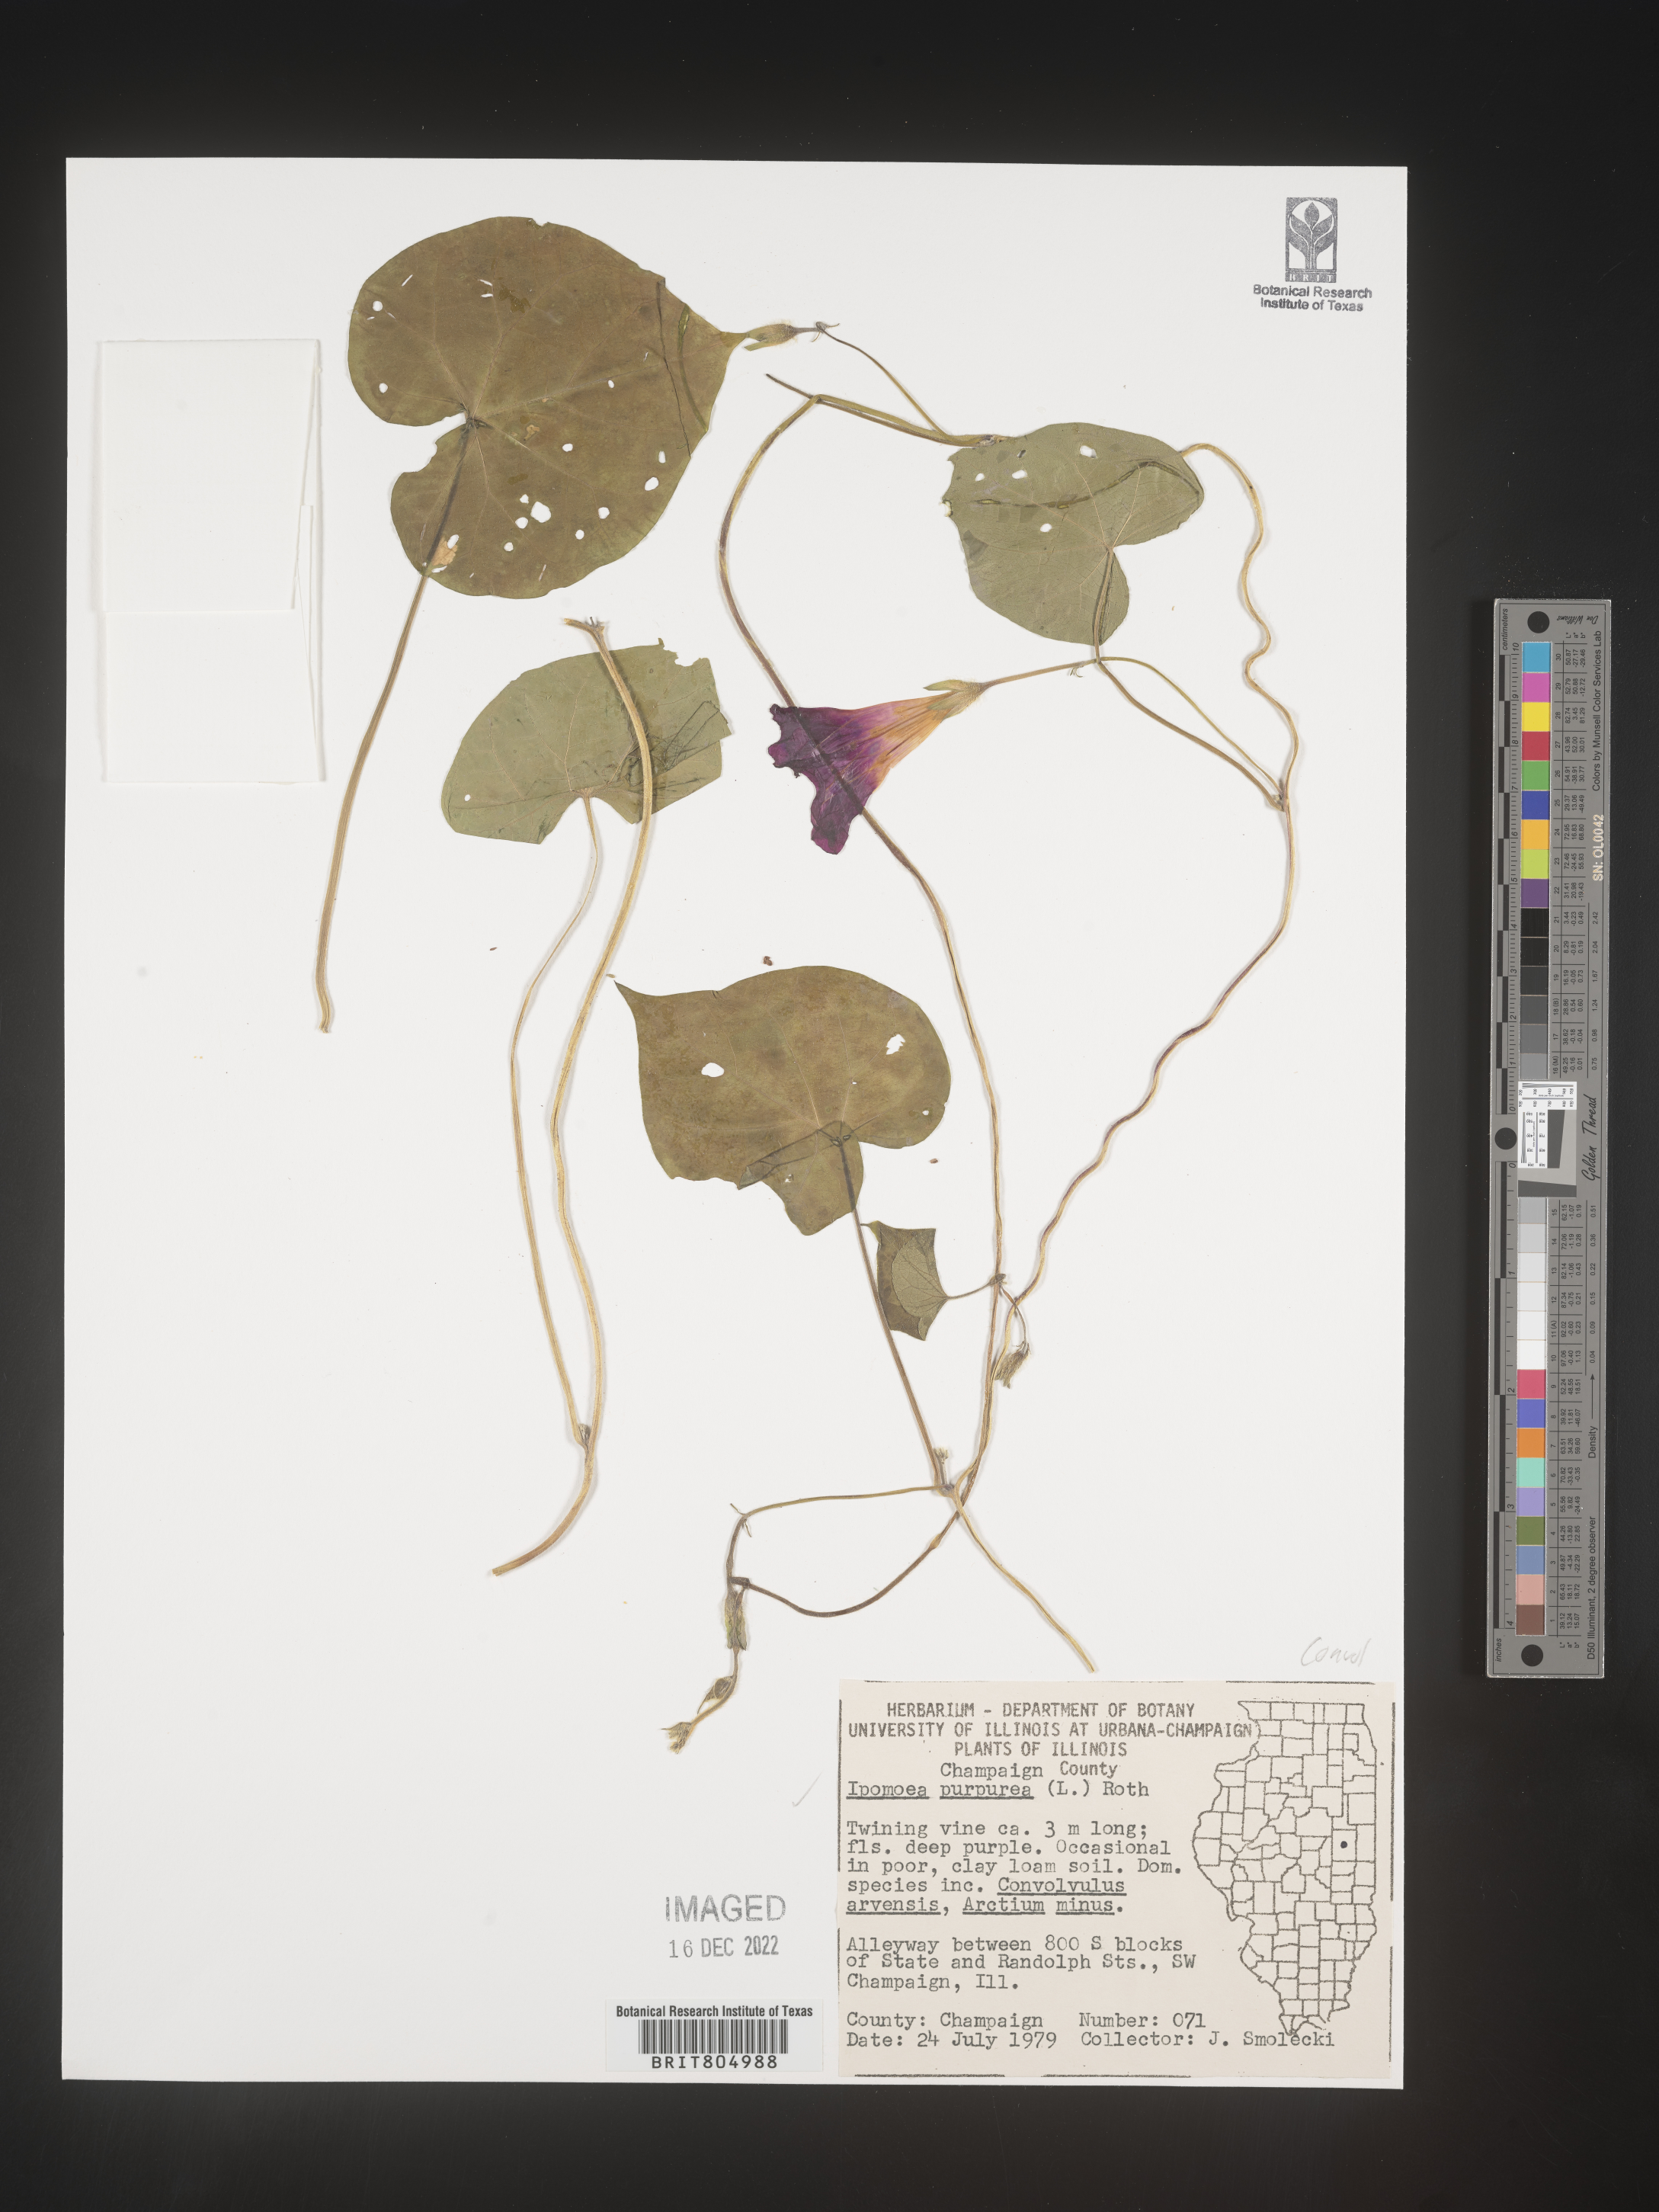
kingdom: Plantae
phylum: Tracheophyta
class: Magnoliopsida
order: Solanales
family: Convolvulaceae
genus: Ipomoea
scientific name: Ipomoea purpurea
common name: Common morning-glory
